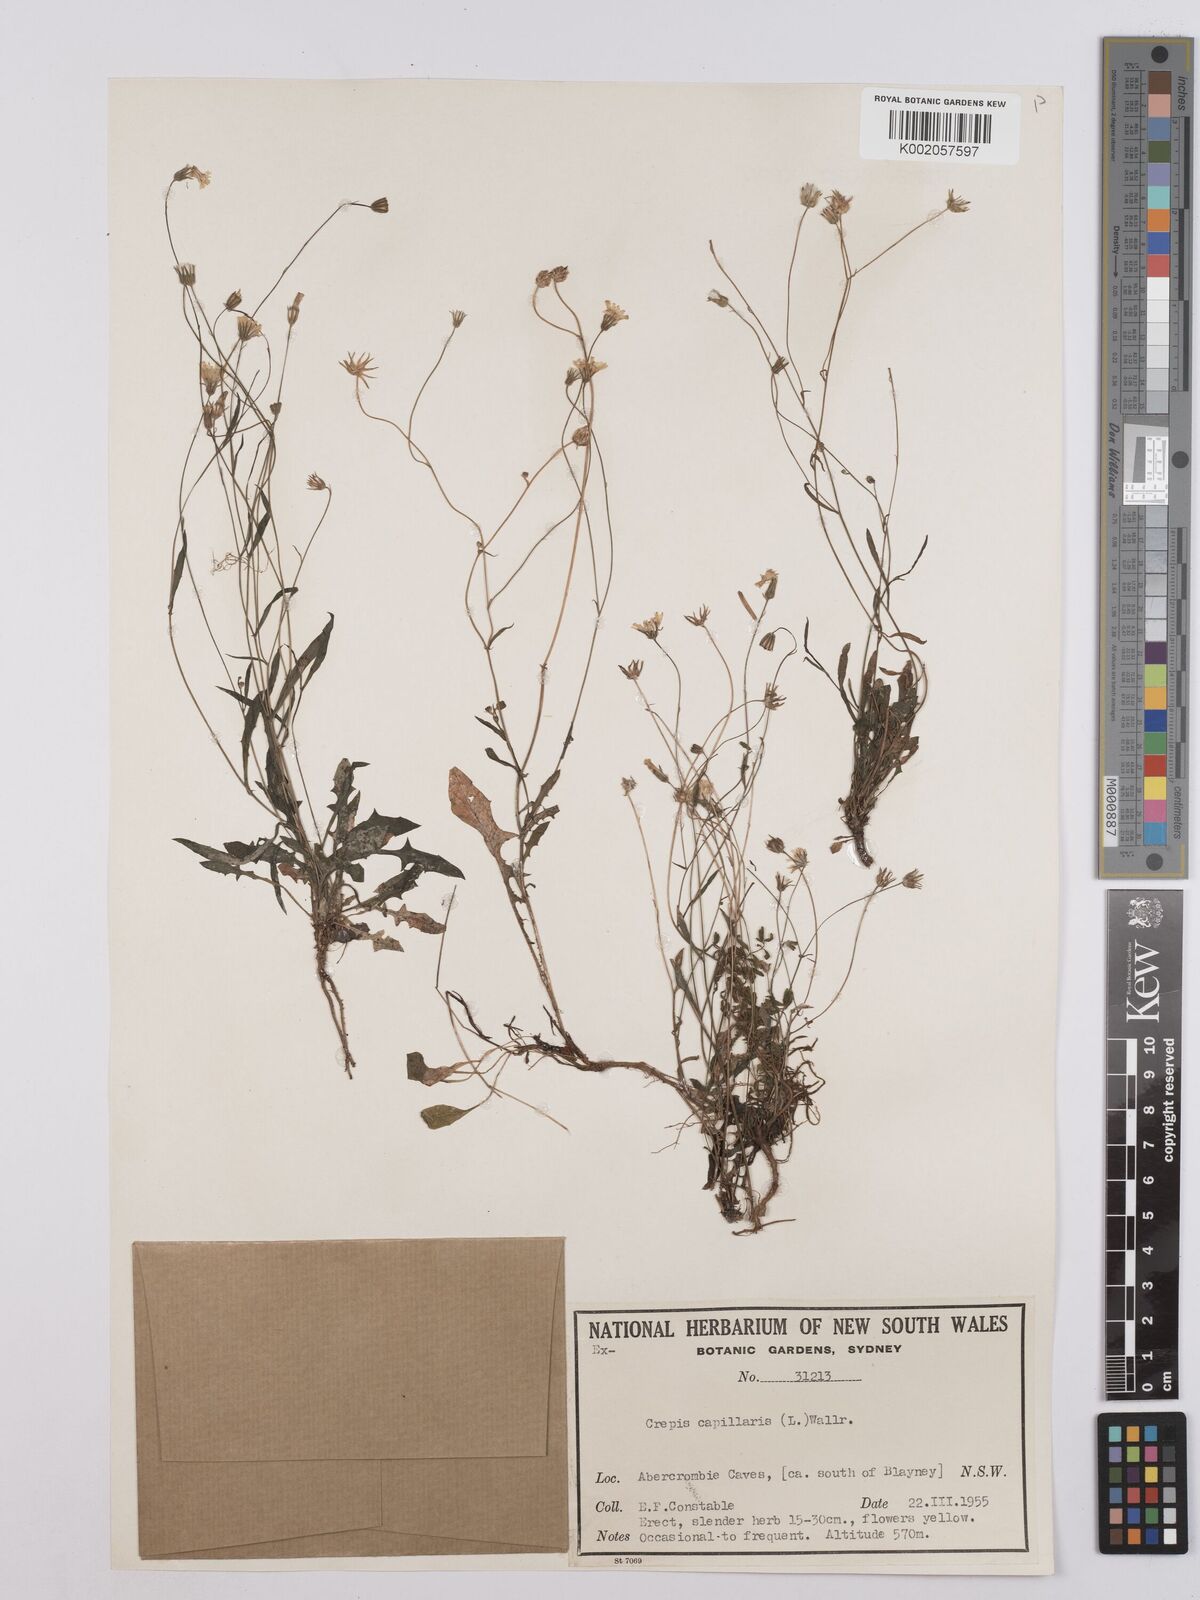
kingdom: Plantae
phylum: Tracheophyta
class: Magnoliopsida
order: Asterales
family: Asteraceae
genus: Crepis
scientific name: Crepis capillaris
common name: Smooth hawksbeard
